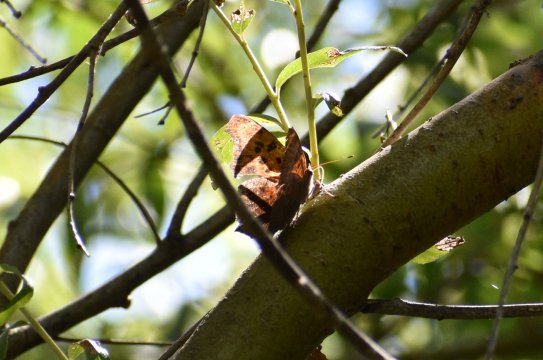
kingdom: Animalia
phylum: Arthropoda
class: Insecta
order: Lepidoptera
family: Nymphalidae
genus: Polygonia
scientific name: Polygonia interrogationis
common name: Question Mark
